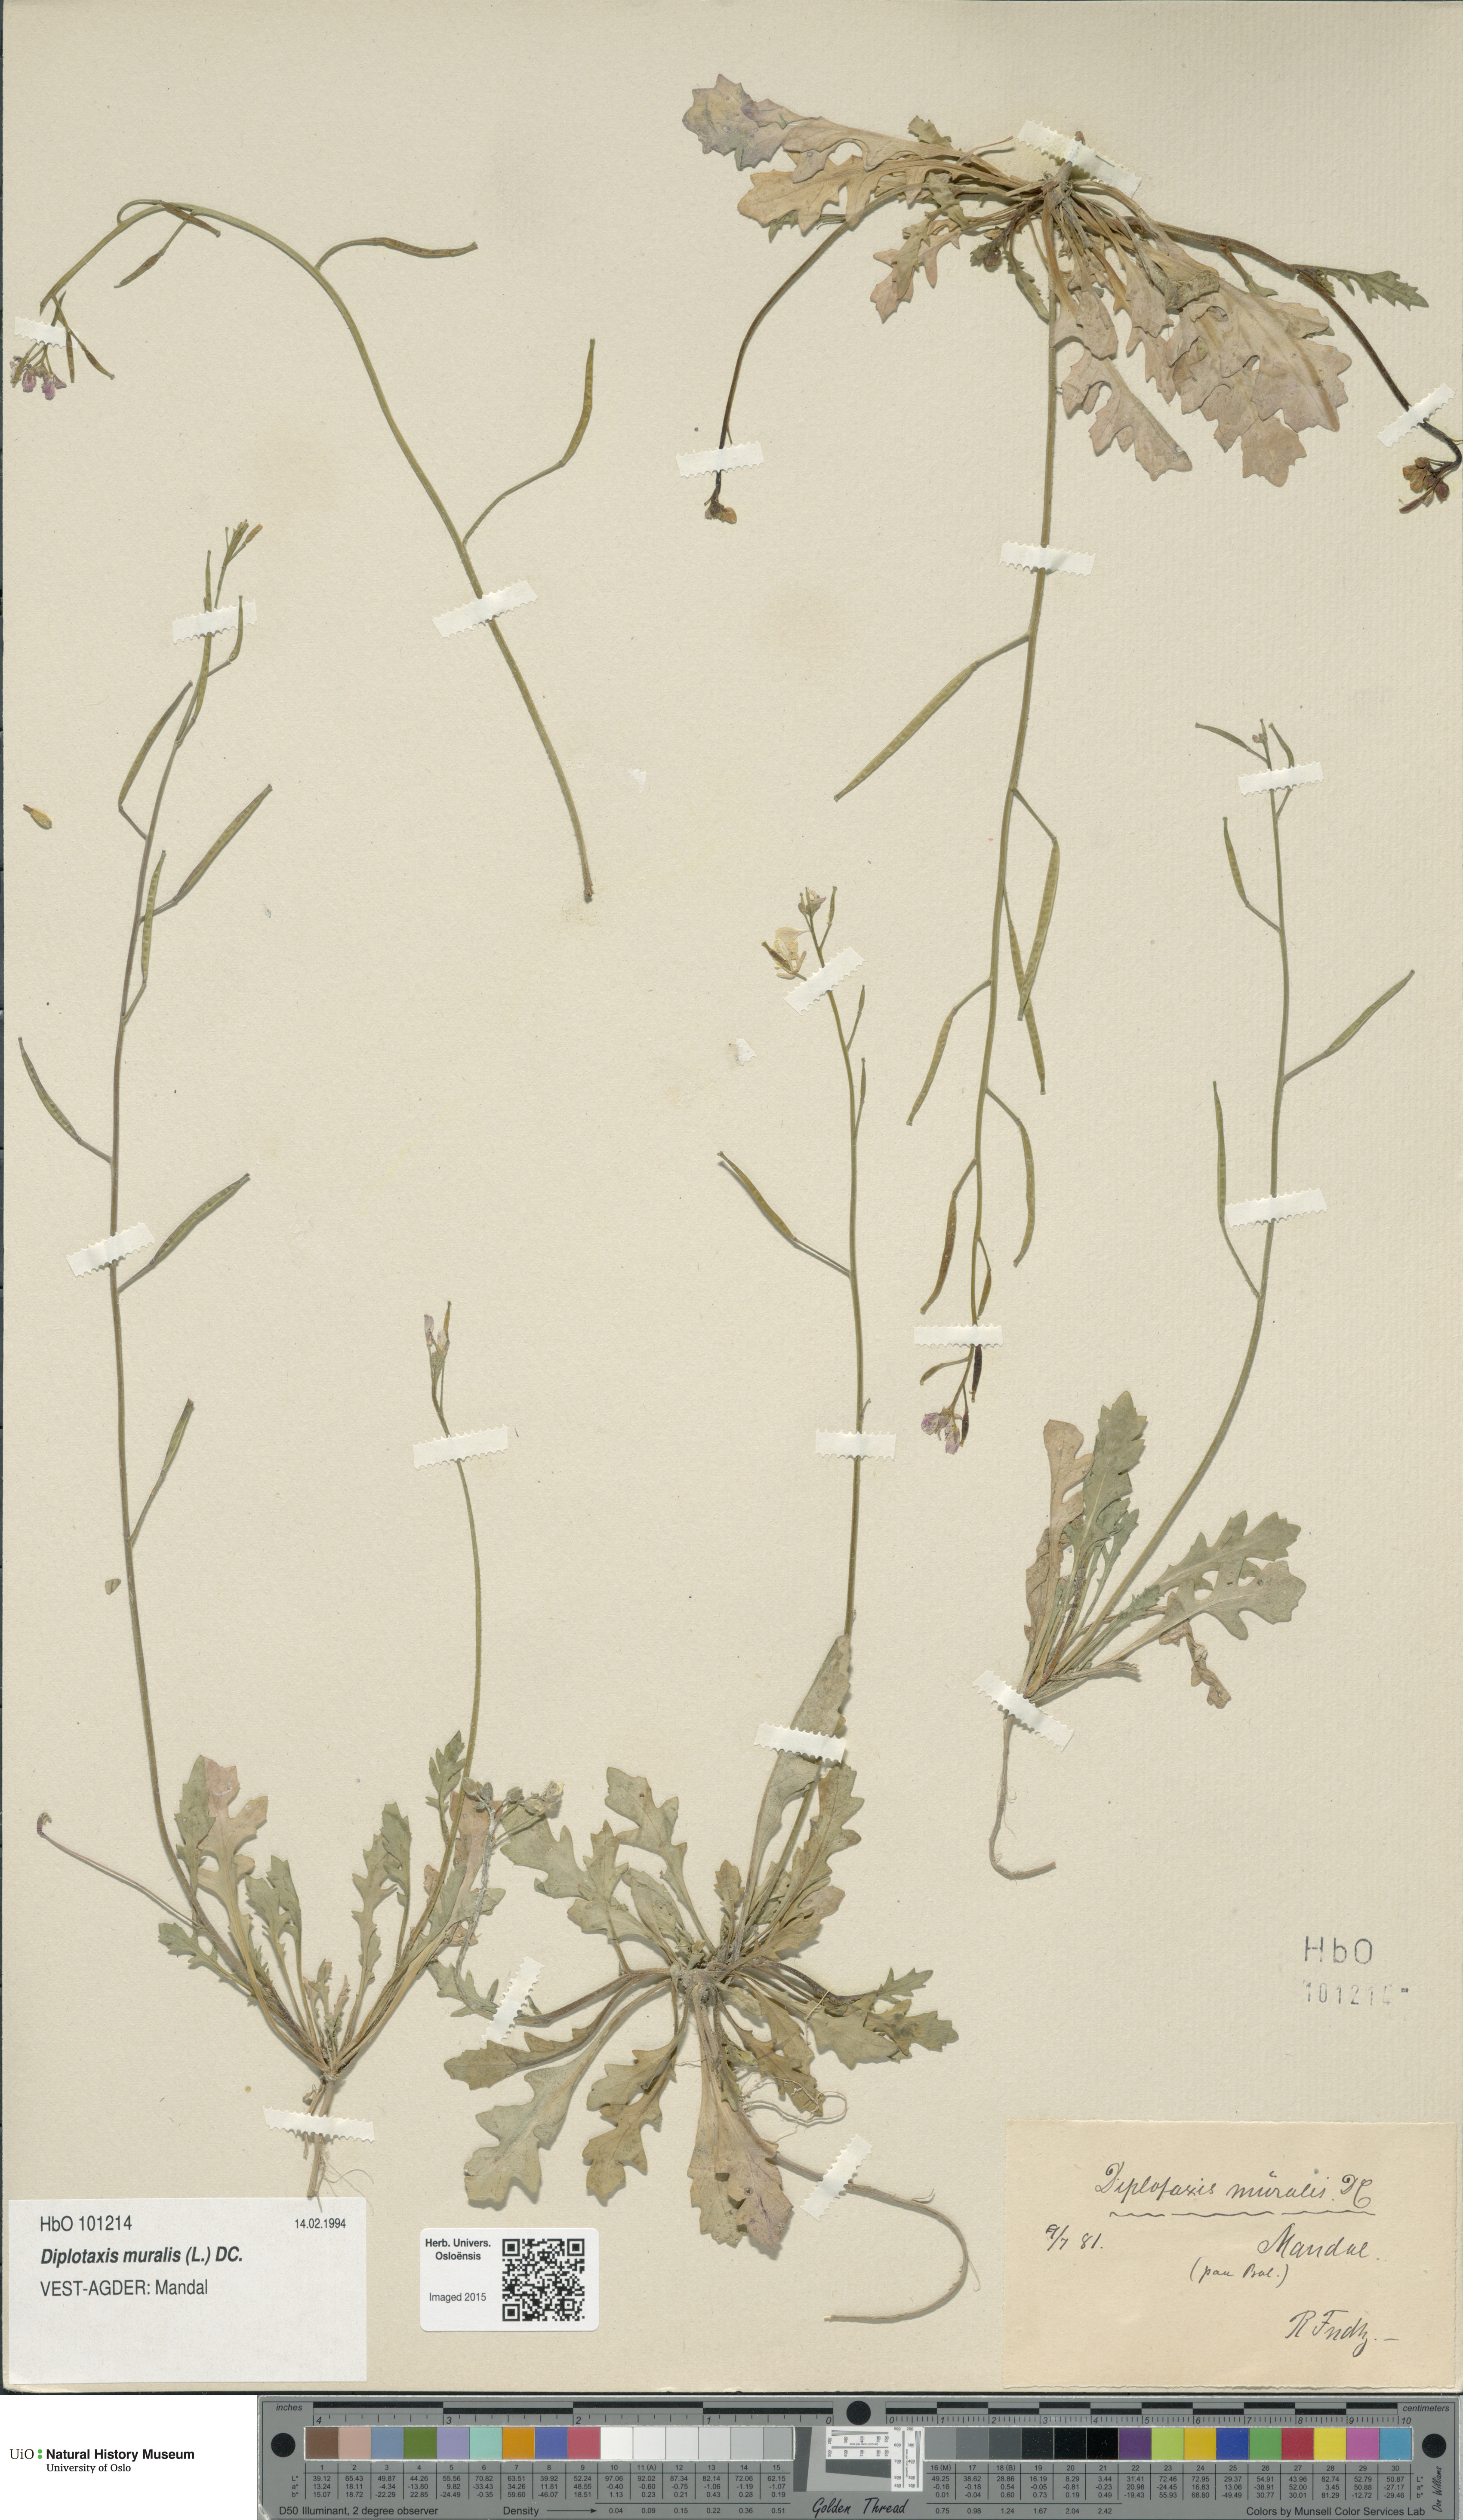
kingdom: Plantae
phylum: Tracheophyta
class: Magnoliopsida
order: Brassicales
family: Brassicaceae
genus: Diplotaxis
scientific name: Diplotaxis muralis
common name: Annual wall-rocket
